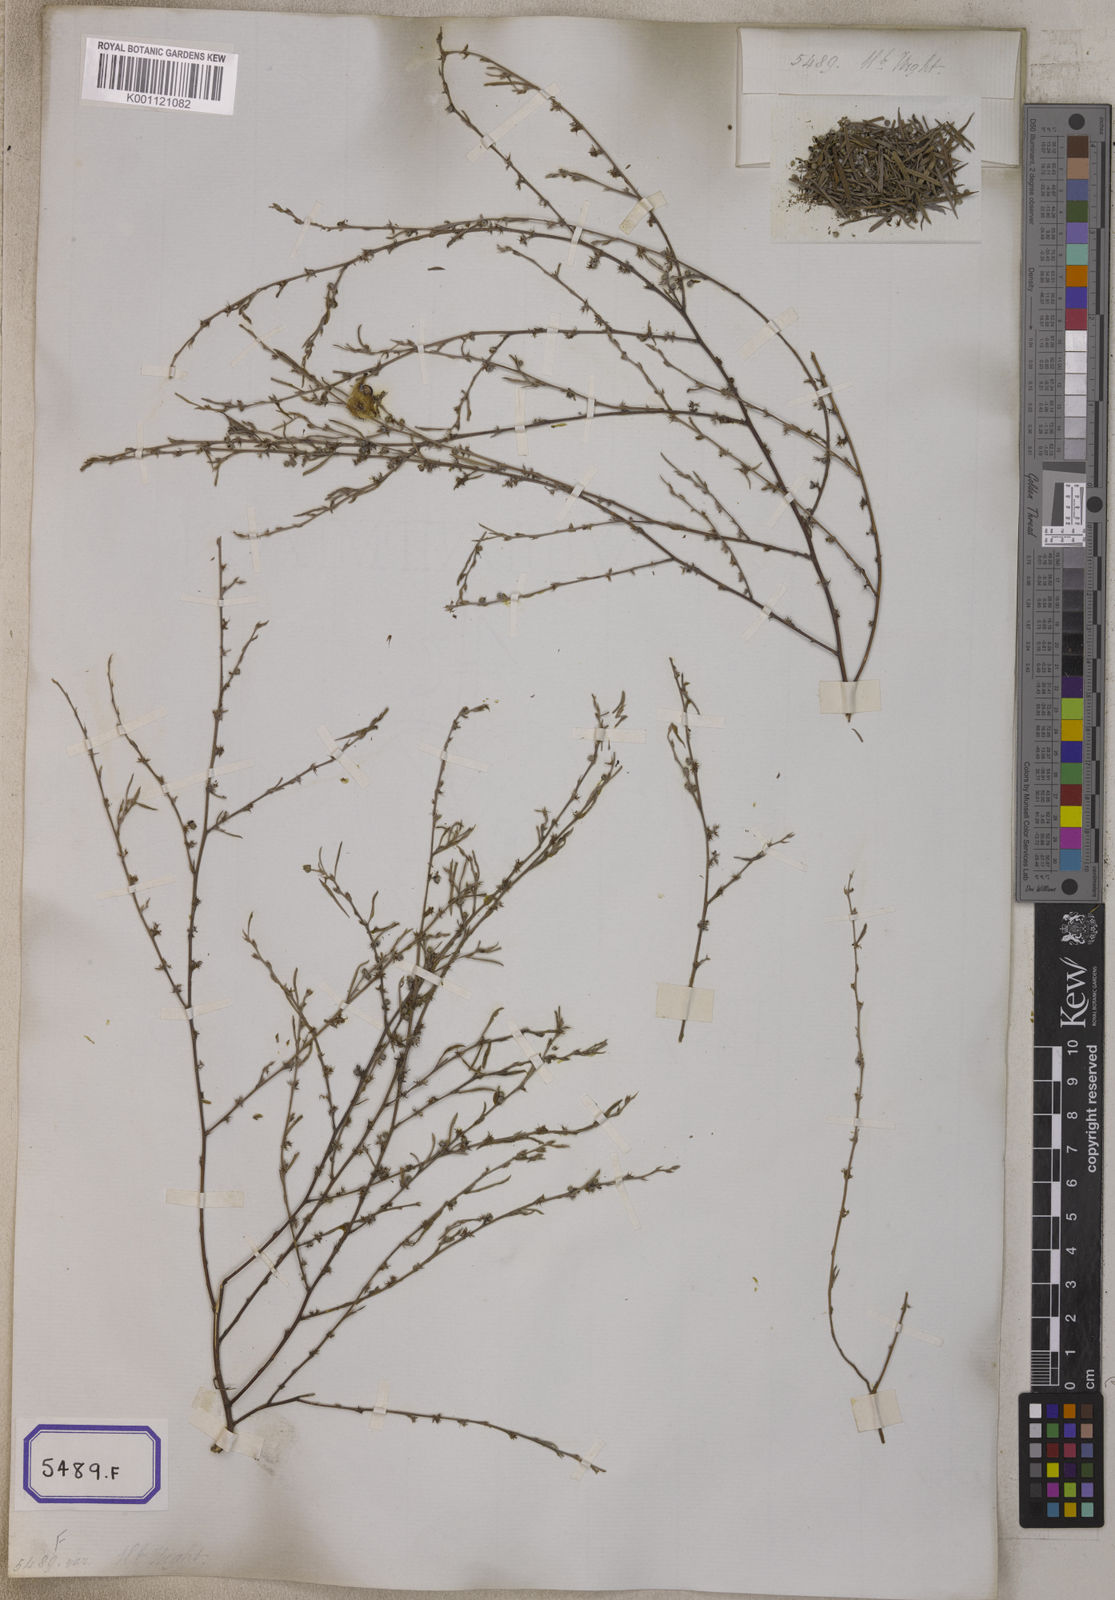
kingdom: Plantae
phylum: Tracheophyta
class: Magnoliopsida
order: Fabales
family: Fabaceae
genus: Indigofera
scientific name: Indigofera linifolia
